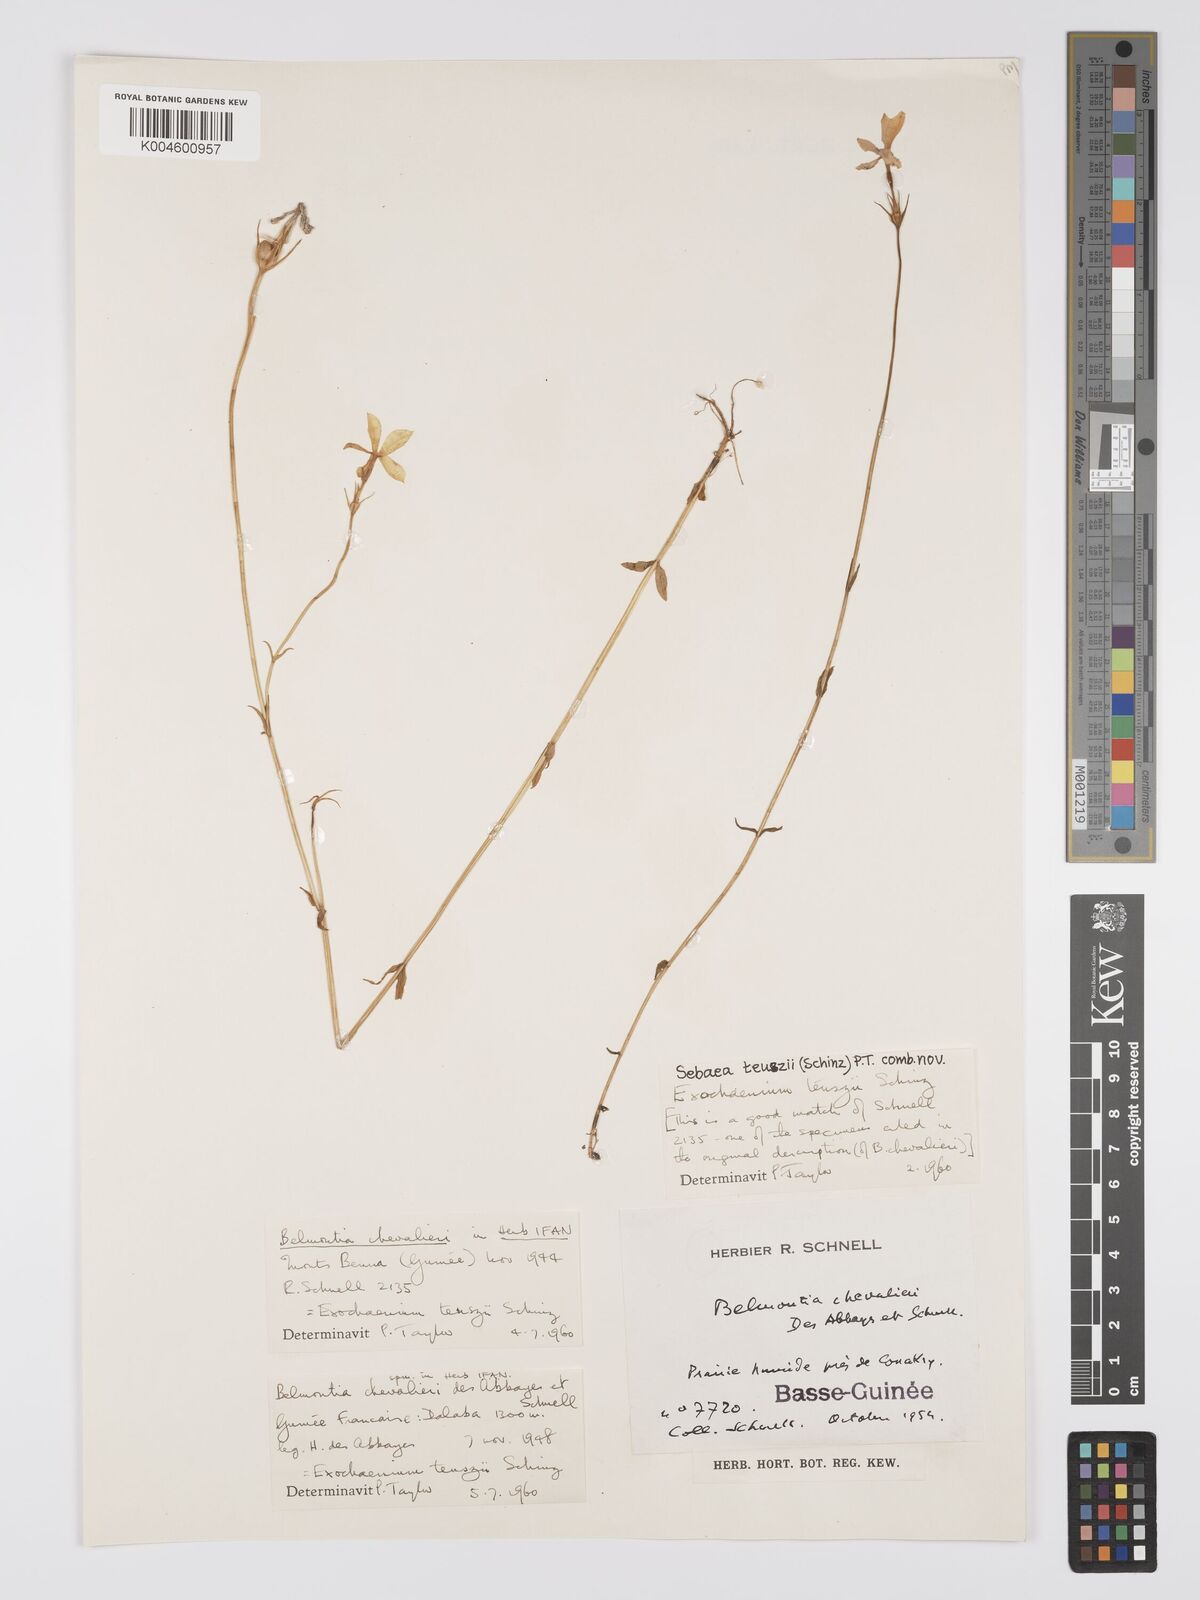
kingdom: Plantae
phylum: Tracheophyta
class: Magnoliopsida
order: Gentianales
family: Gentianaceae
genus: Exochaenium
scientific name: Exochaenium teuszii
